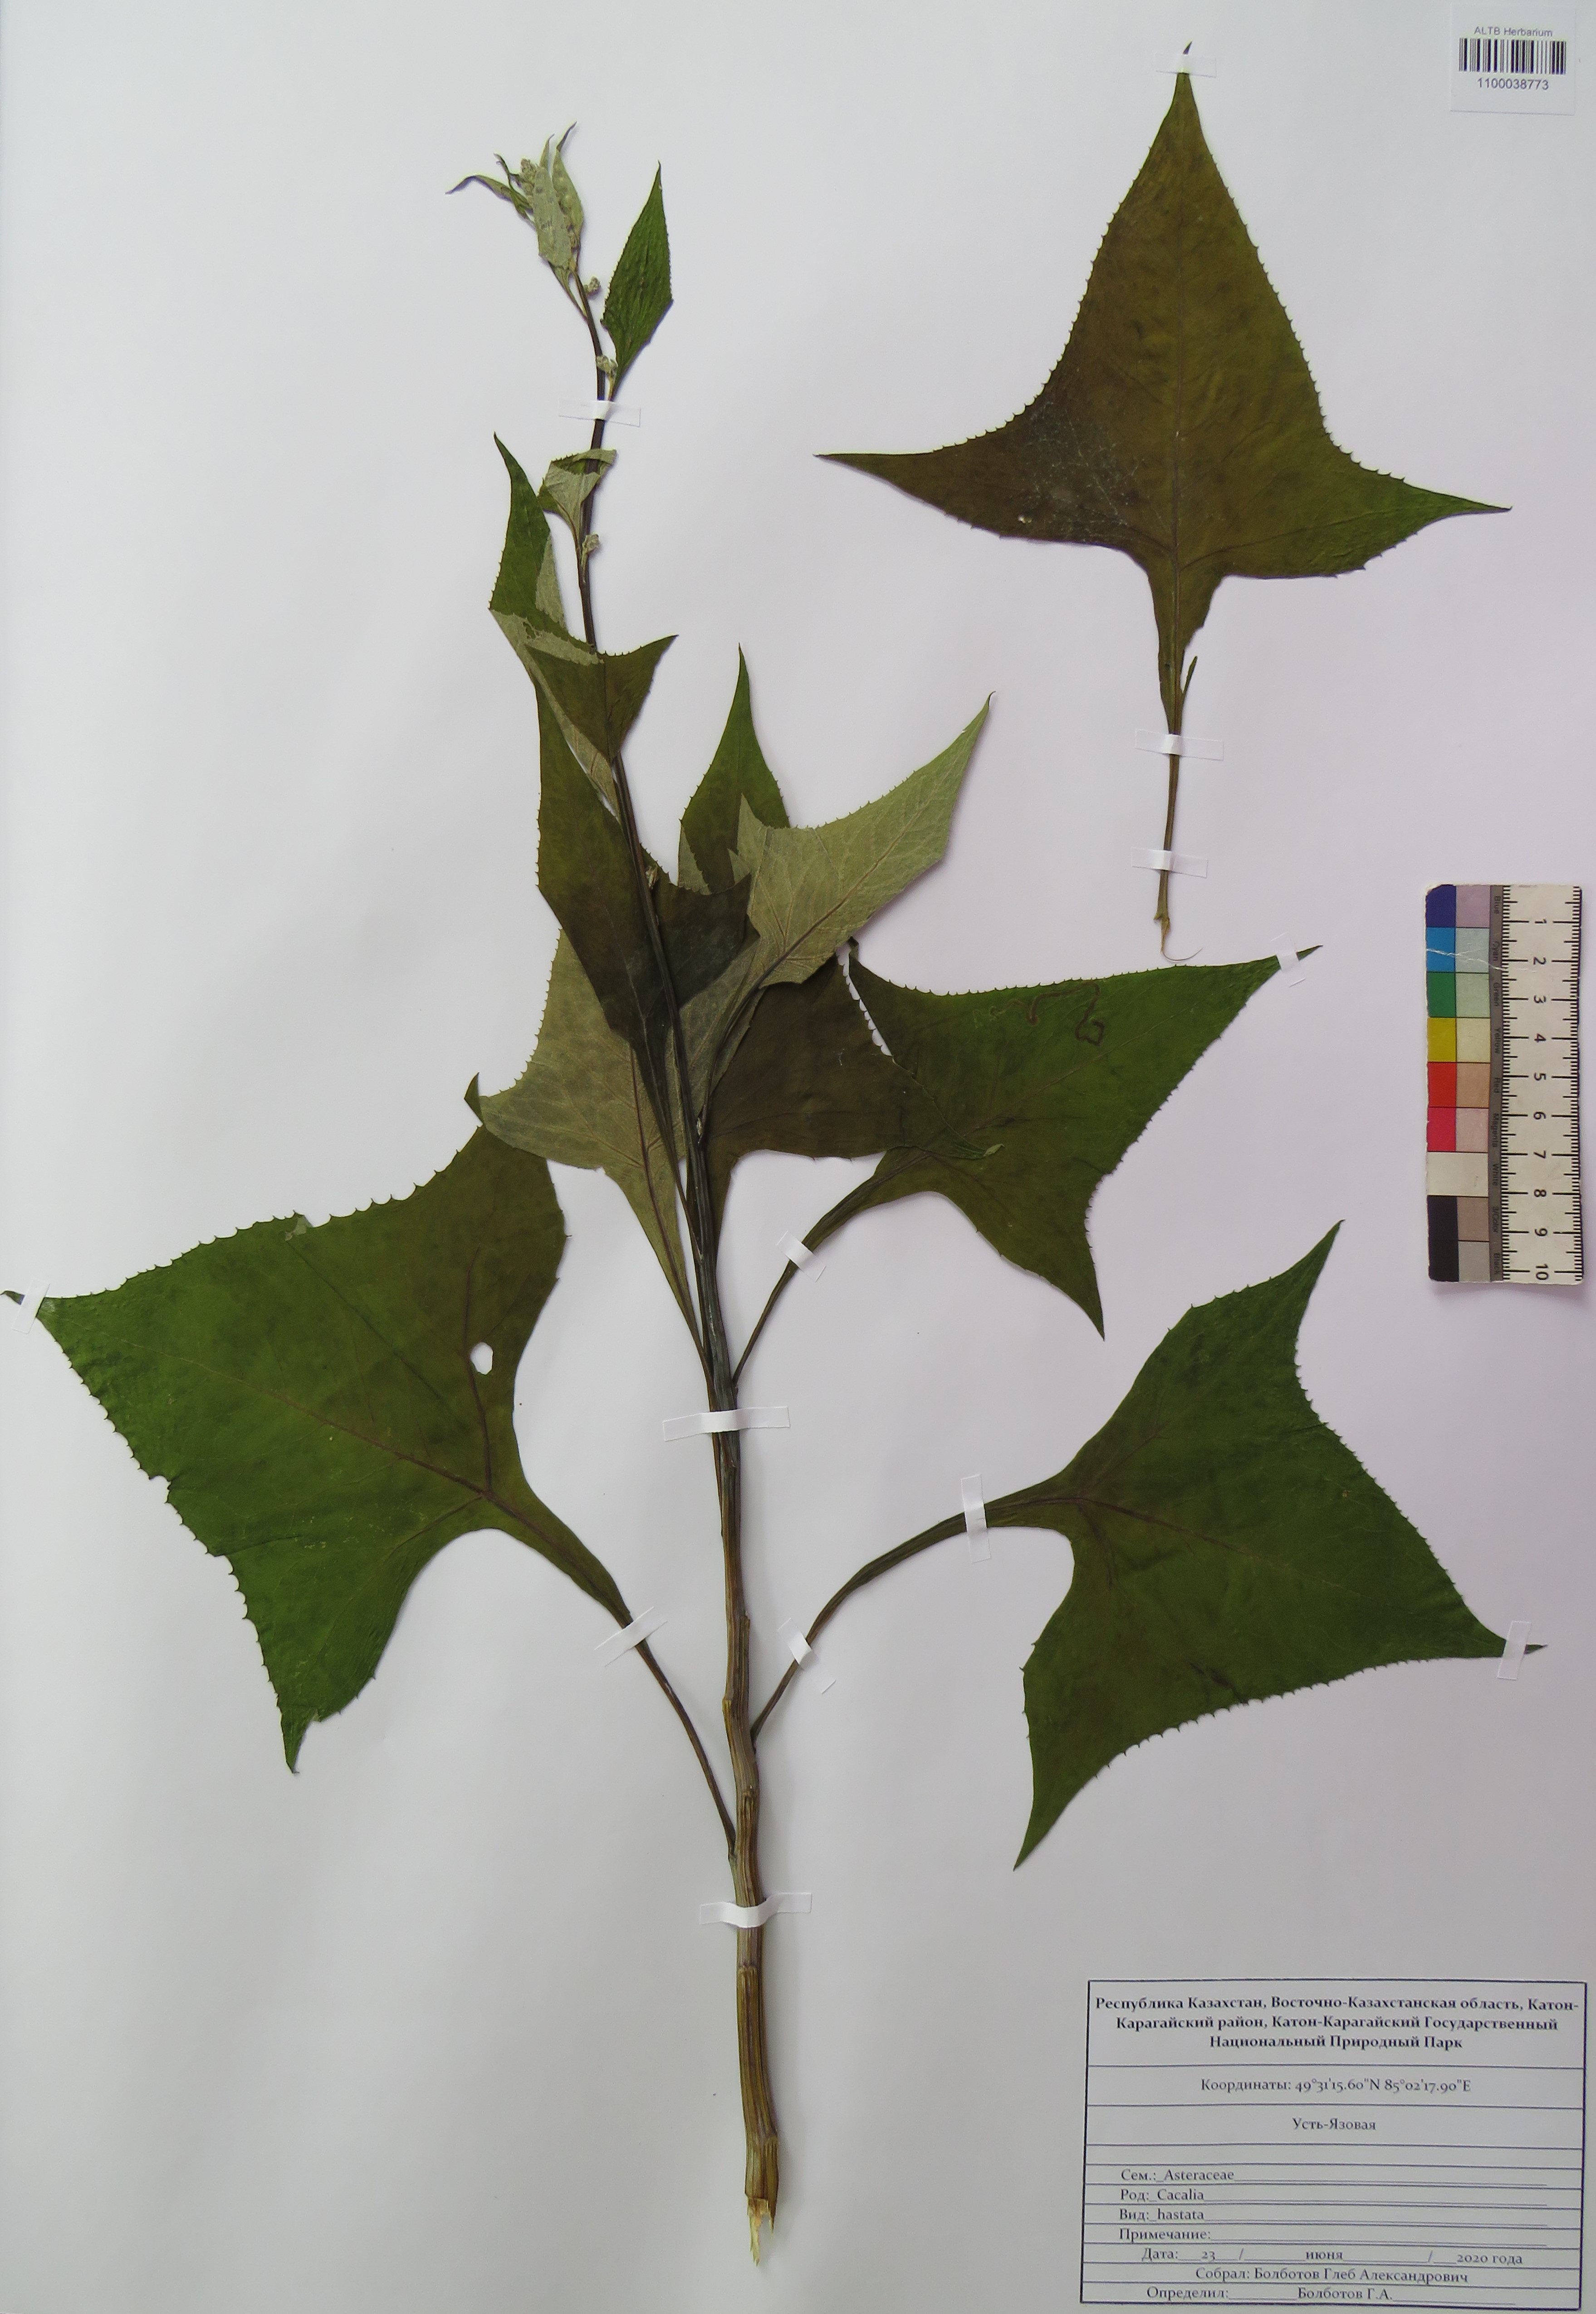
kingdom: Plantae
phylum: Tracheophyta
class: Magnoliopsida
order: Asterales
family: Asteraceae
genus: Parasenecio
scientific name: Parasenecio hastatus
